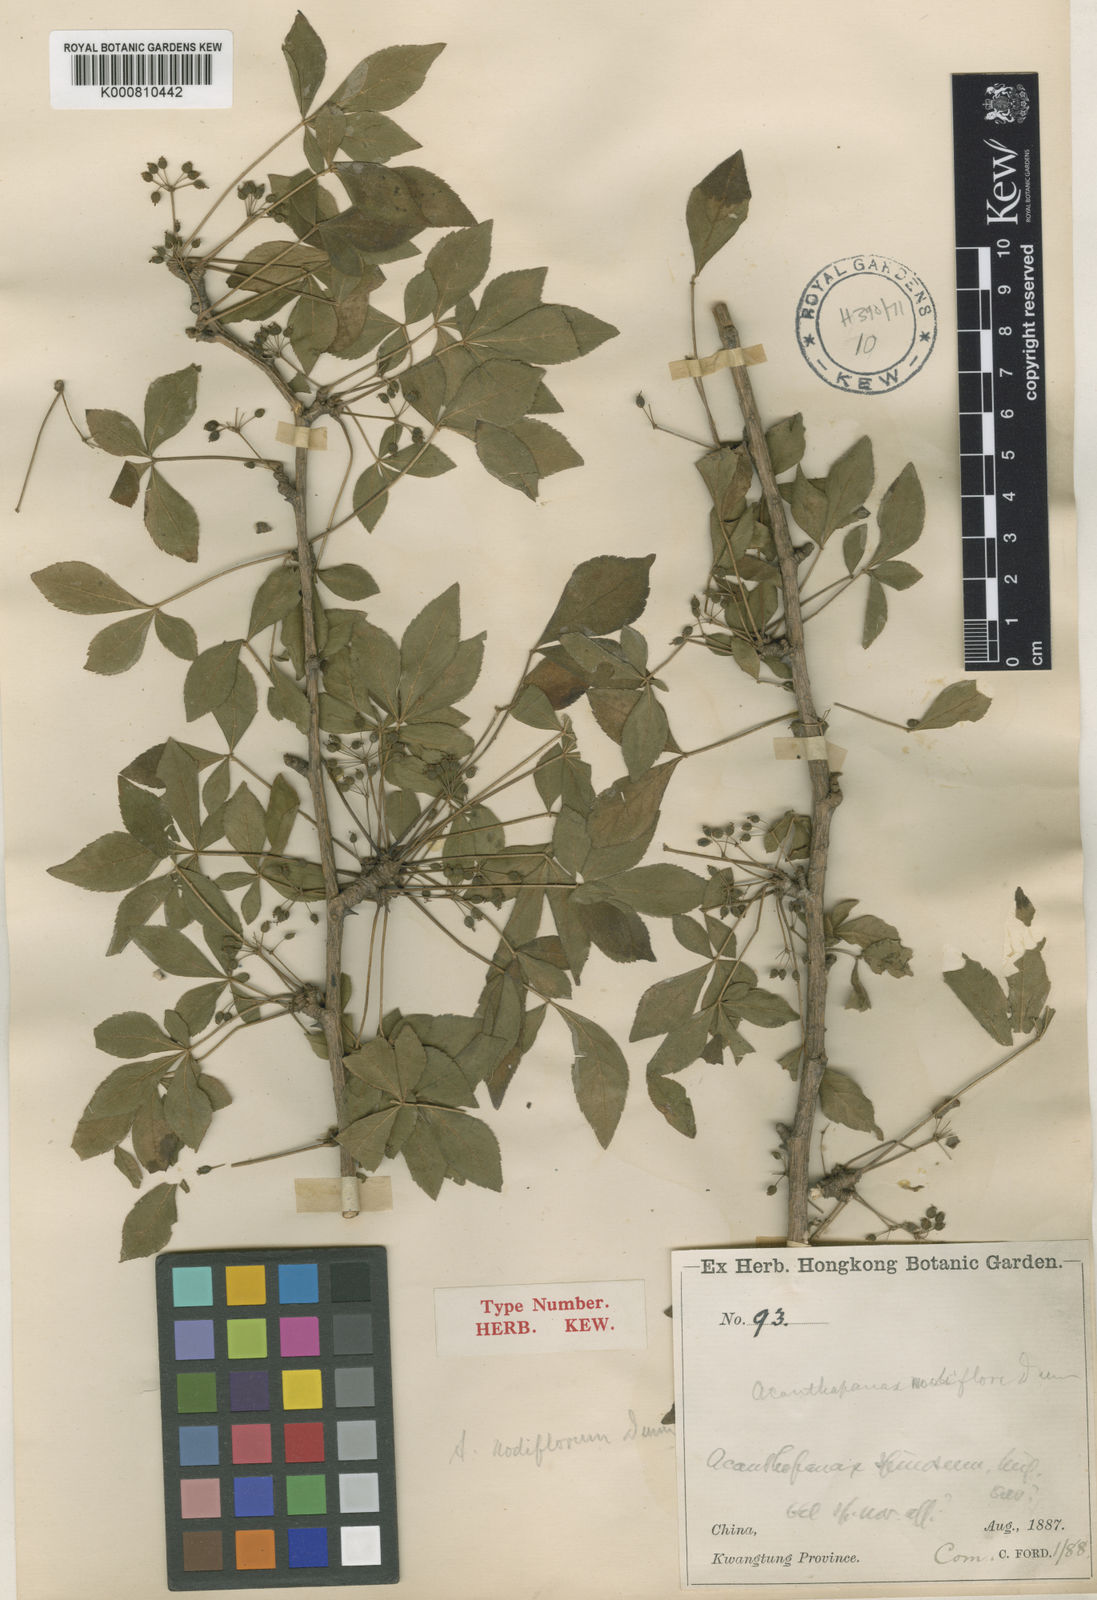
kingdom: Plantae
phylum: Tracheophyta
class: Magnoliopsida
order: Apiales
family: Araliaceae
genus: Eleutherococcus
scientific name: Eleutherococcus nodiflorus
